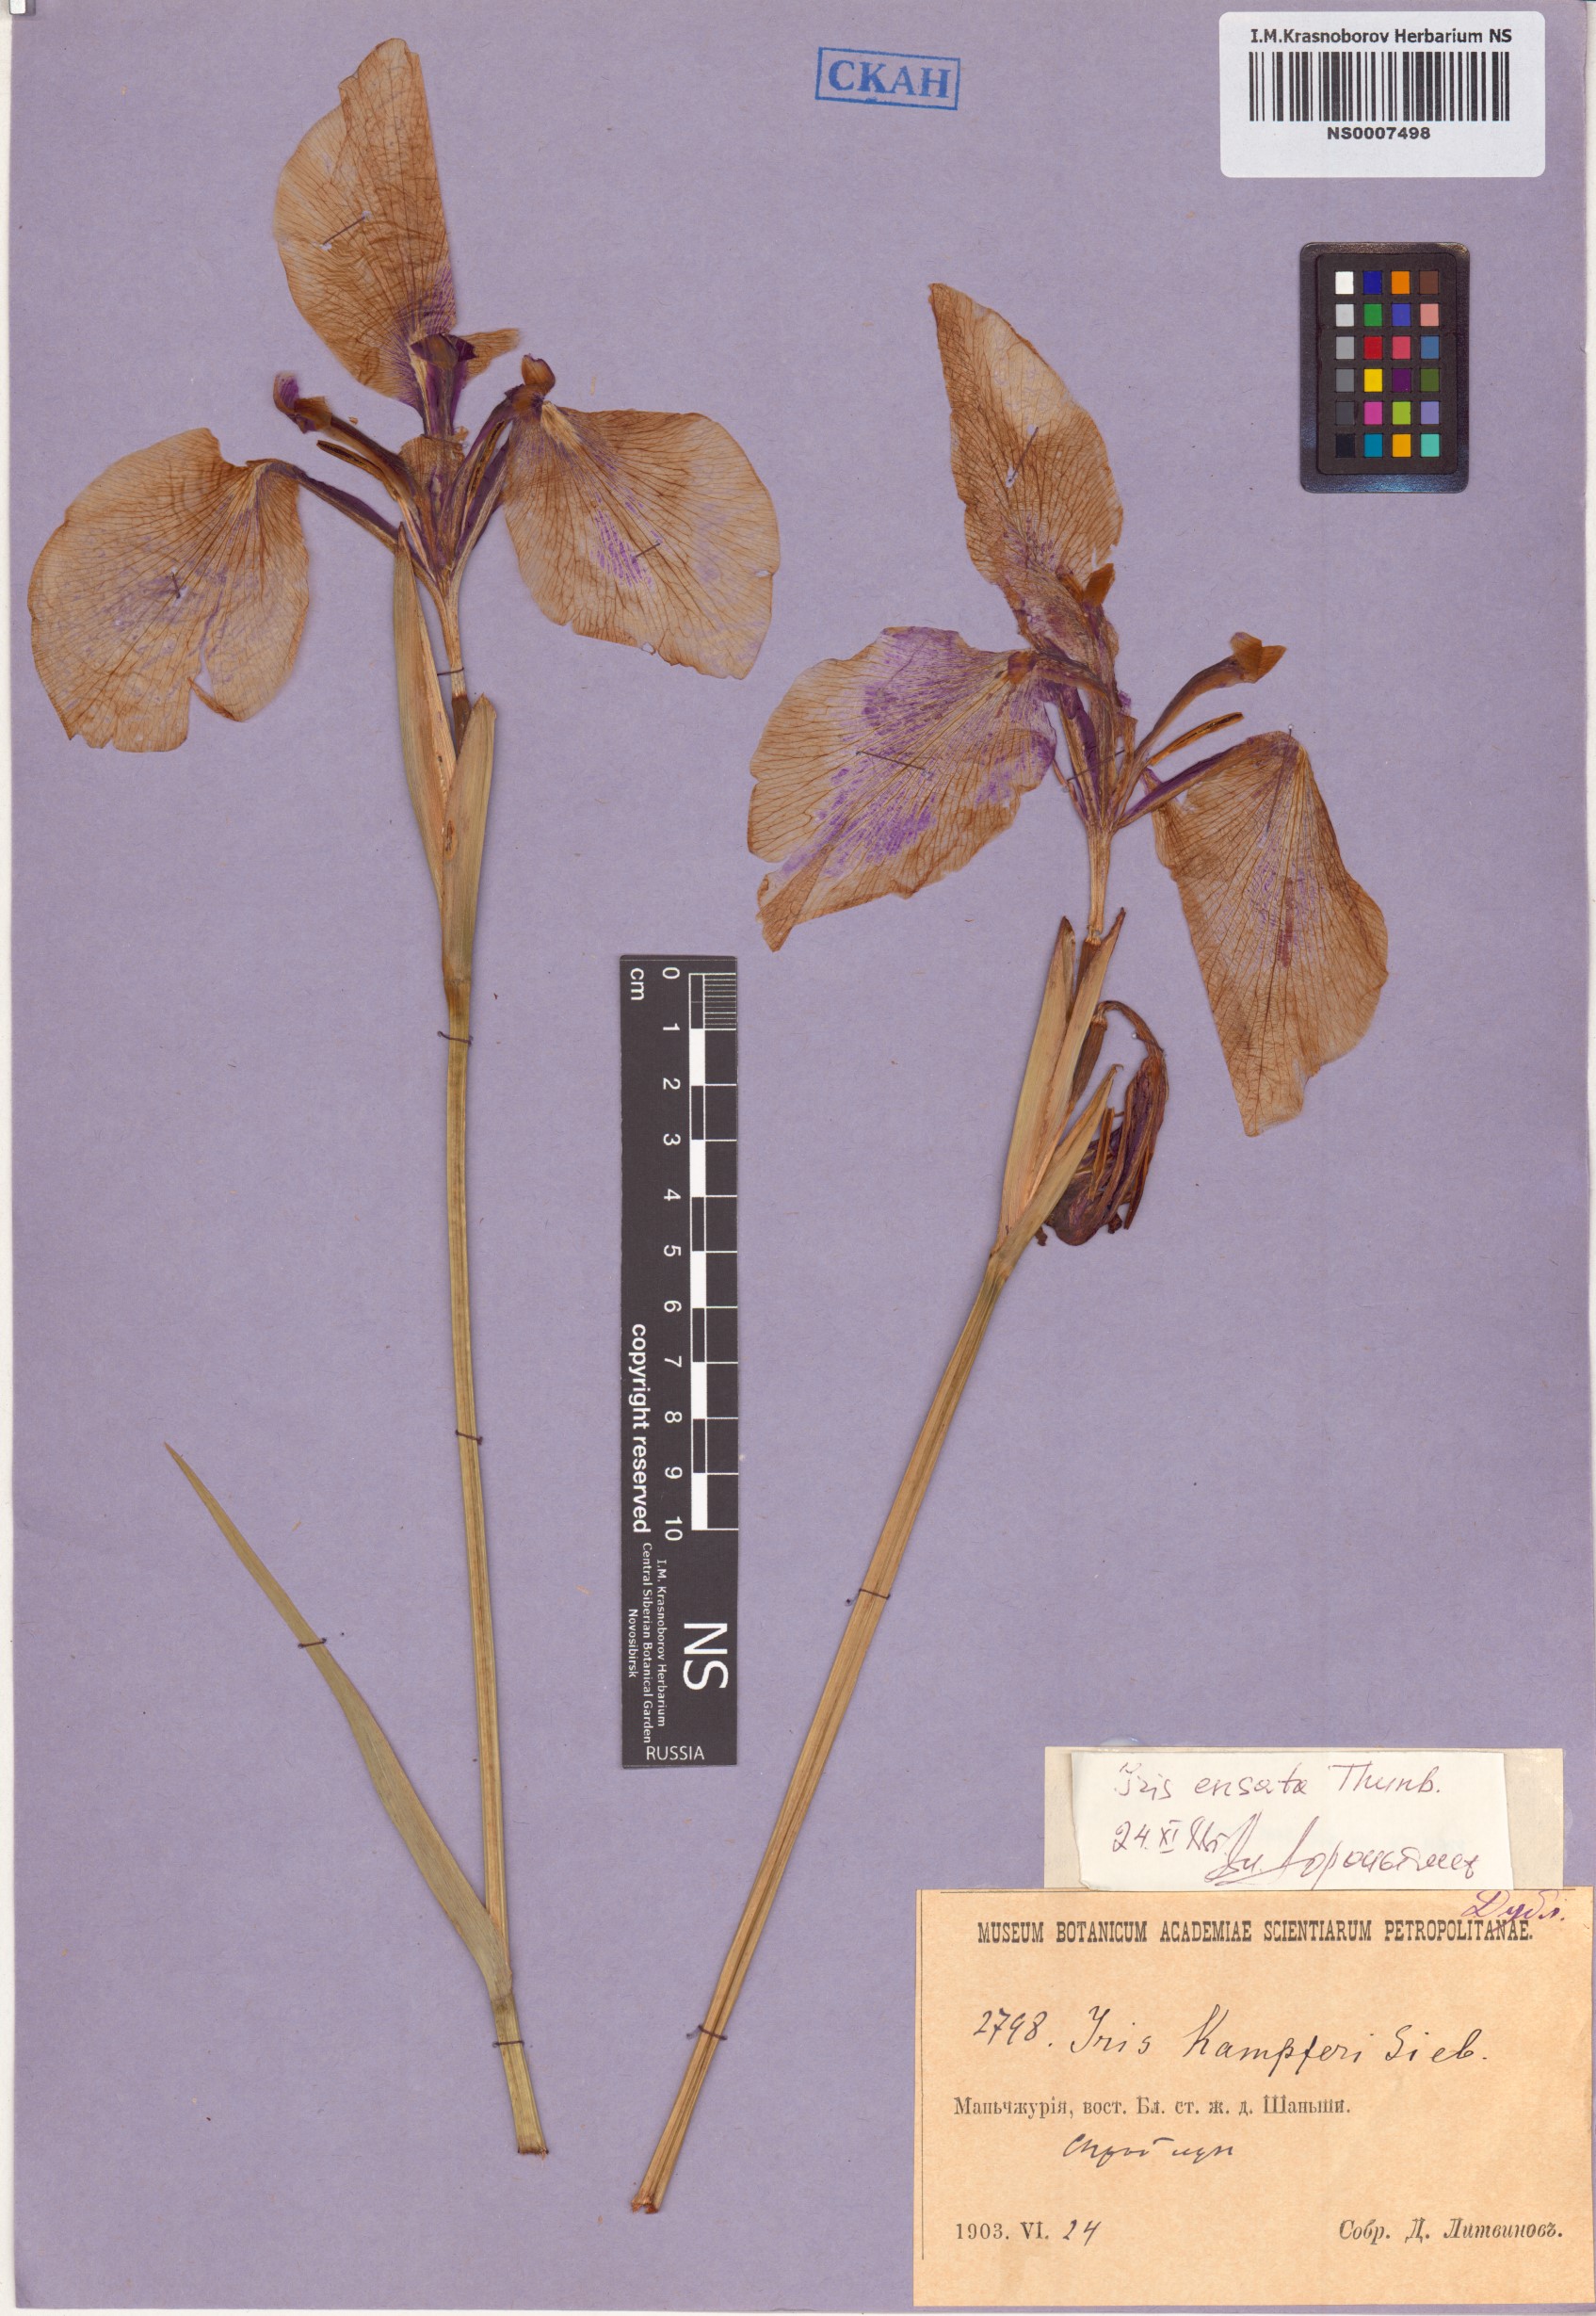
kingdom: Plantae
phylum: Tracheophyta
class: Liliopsida
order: Asparagales
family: Iridaceae
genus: Iris
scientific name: Iris ensata
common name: Beaked iris
